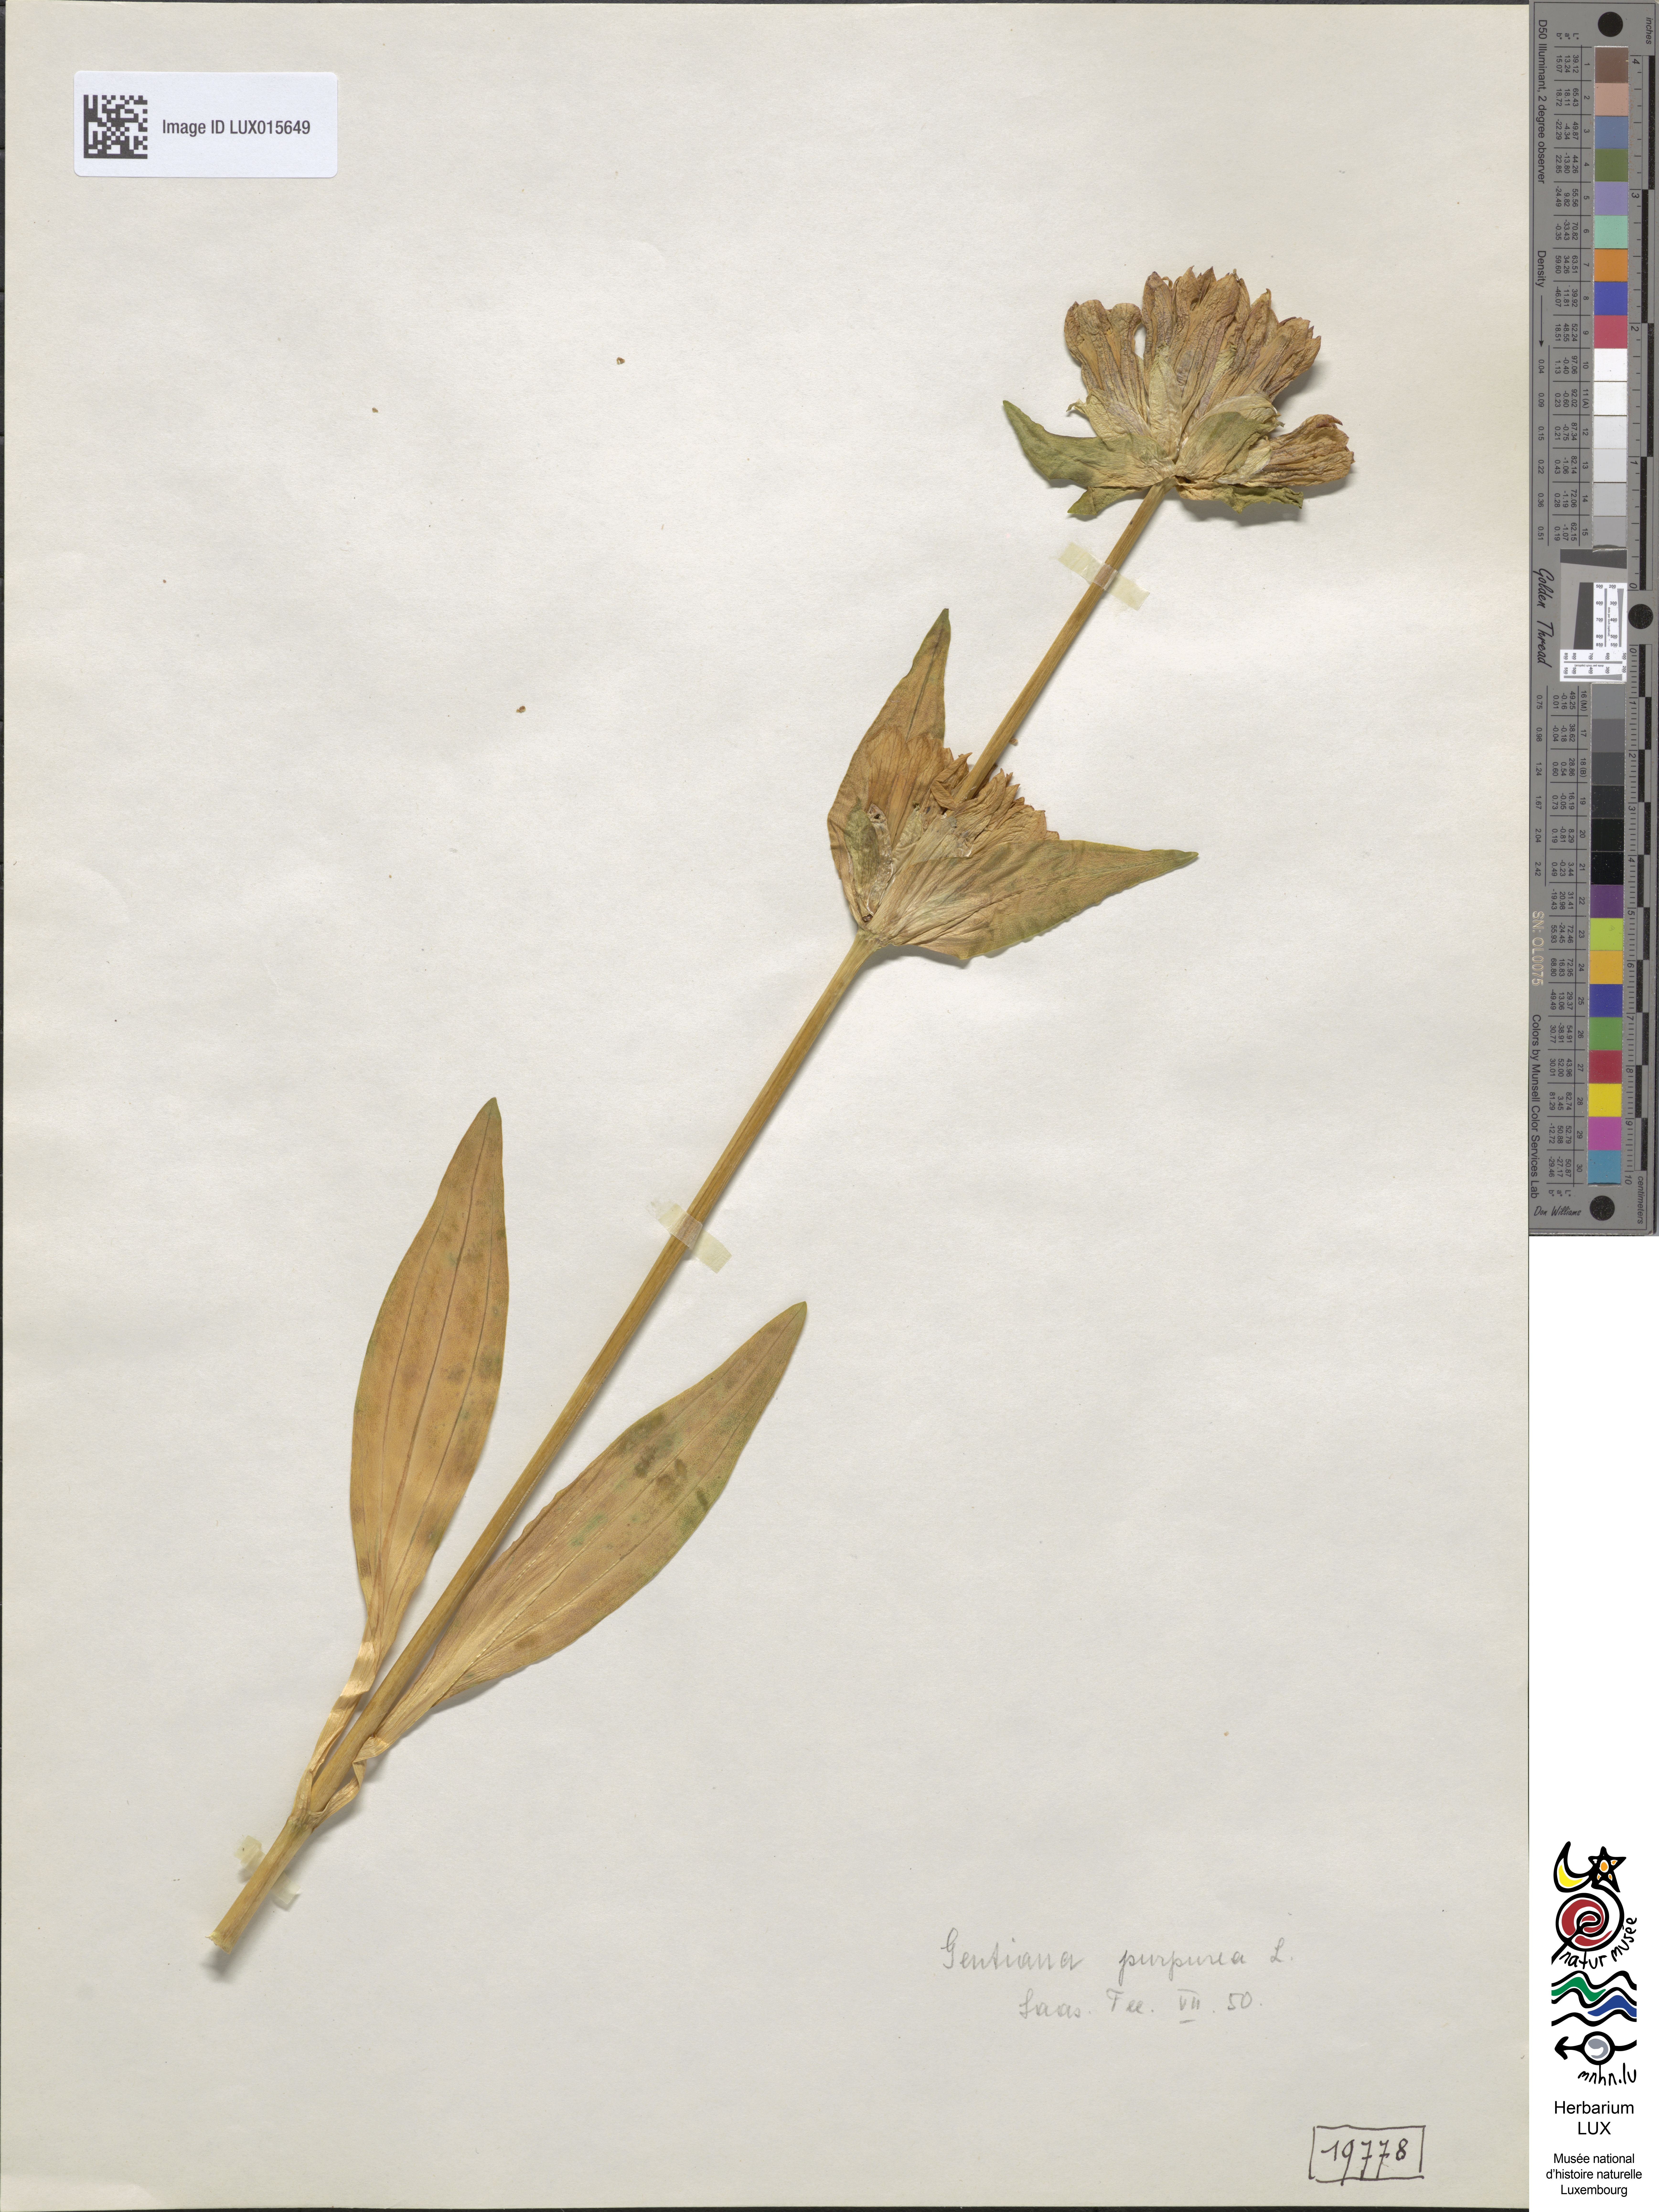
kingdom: Plantae
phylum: Tracheophyta
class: Magnoliopsida
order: Gentianales
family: Gentianaceae
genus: Gentiana
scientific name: Gentiana purpurea
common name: Purple gentian
